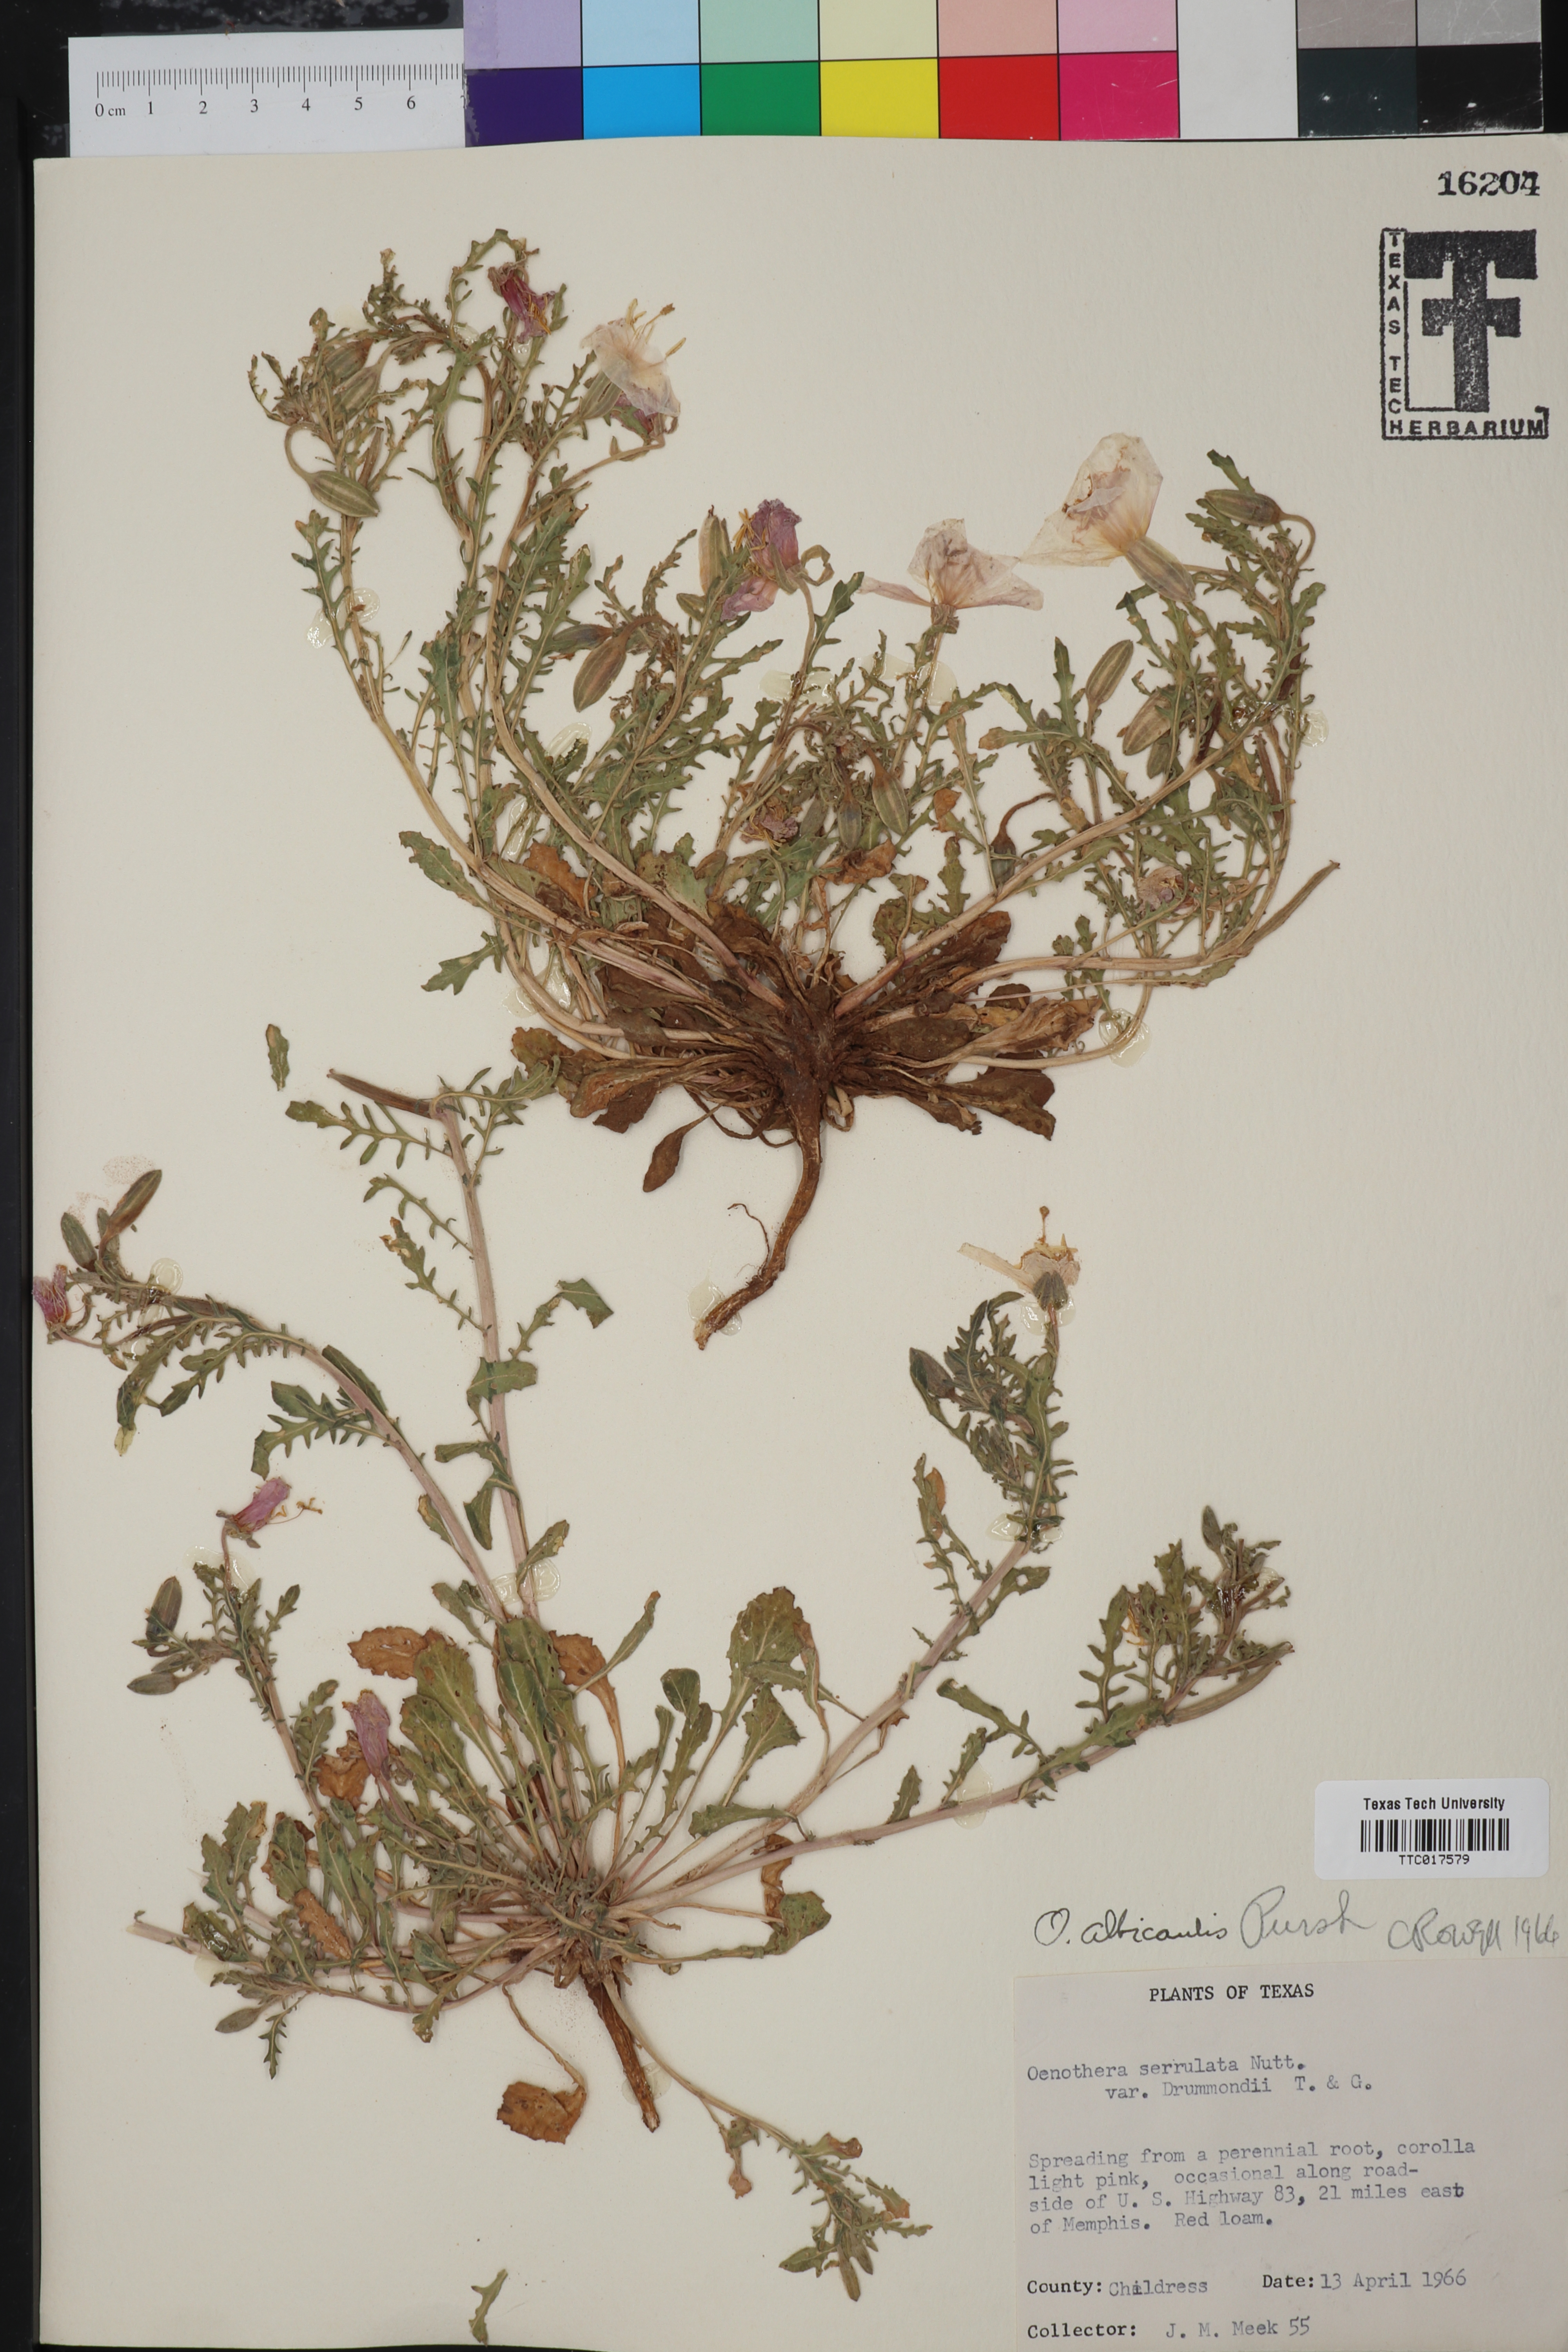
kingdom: Plantae
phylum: Tracheophyta
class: Magnoliopsida
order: Myrtales
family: Onagraceae
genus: Oenothera
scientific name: Oenothera albicaulis
